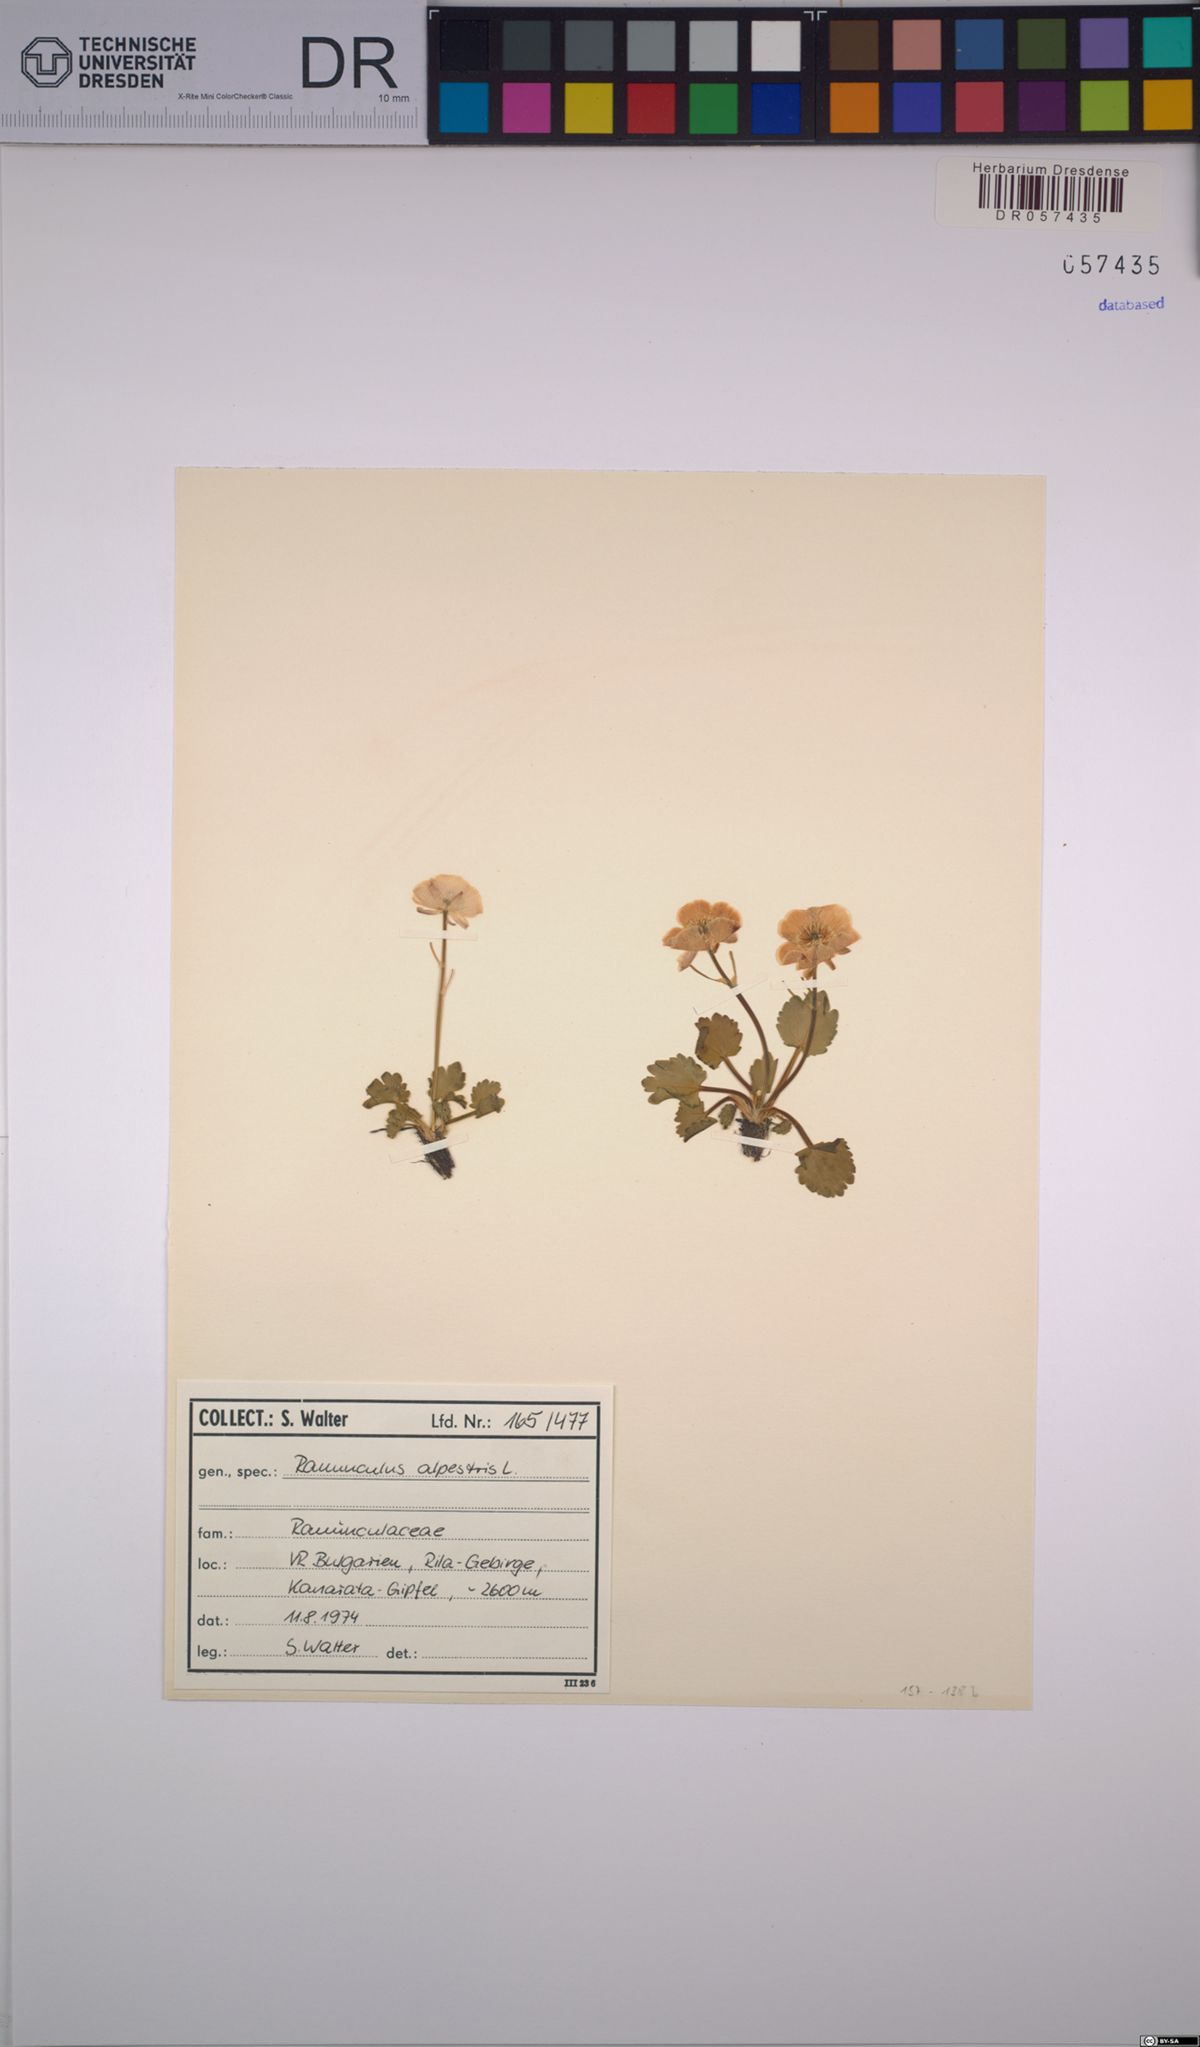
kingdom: Plantae
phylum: Tracheophyta
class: Magnoliopsida
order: Ranunculales
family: Ranunculaceae
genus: Ranunculus
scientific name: Ranunculus alpestris
